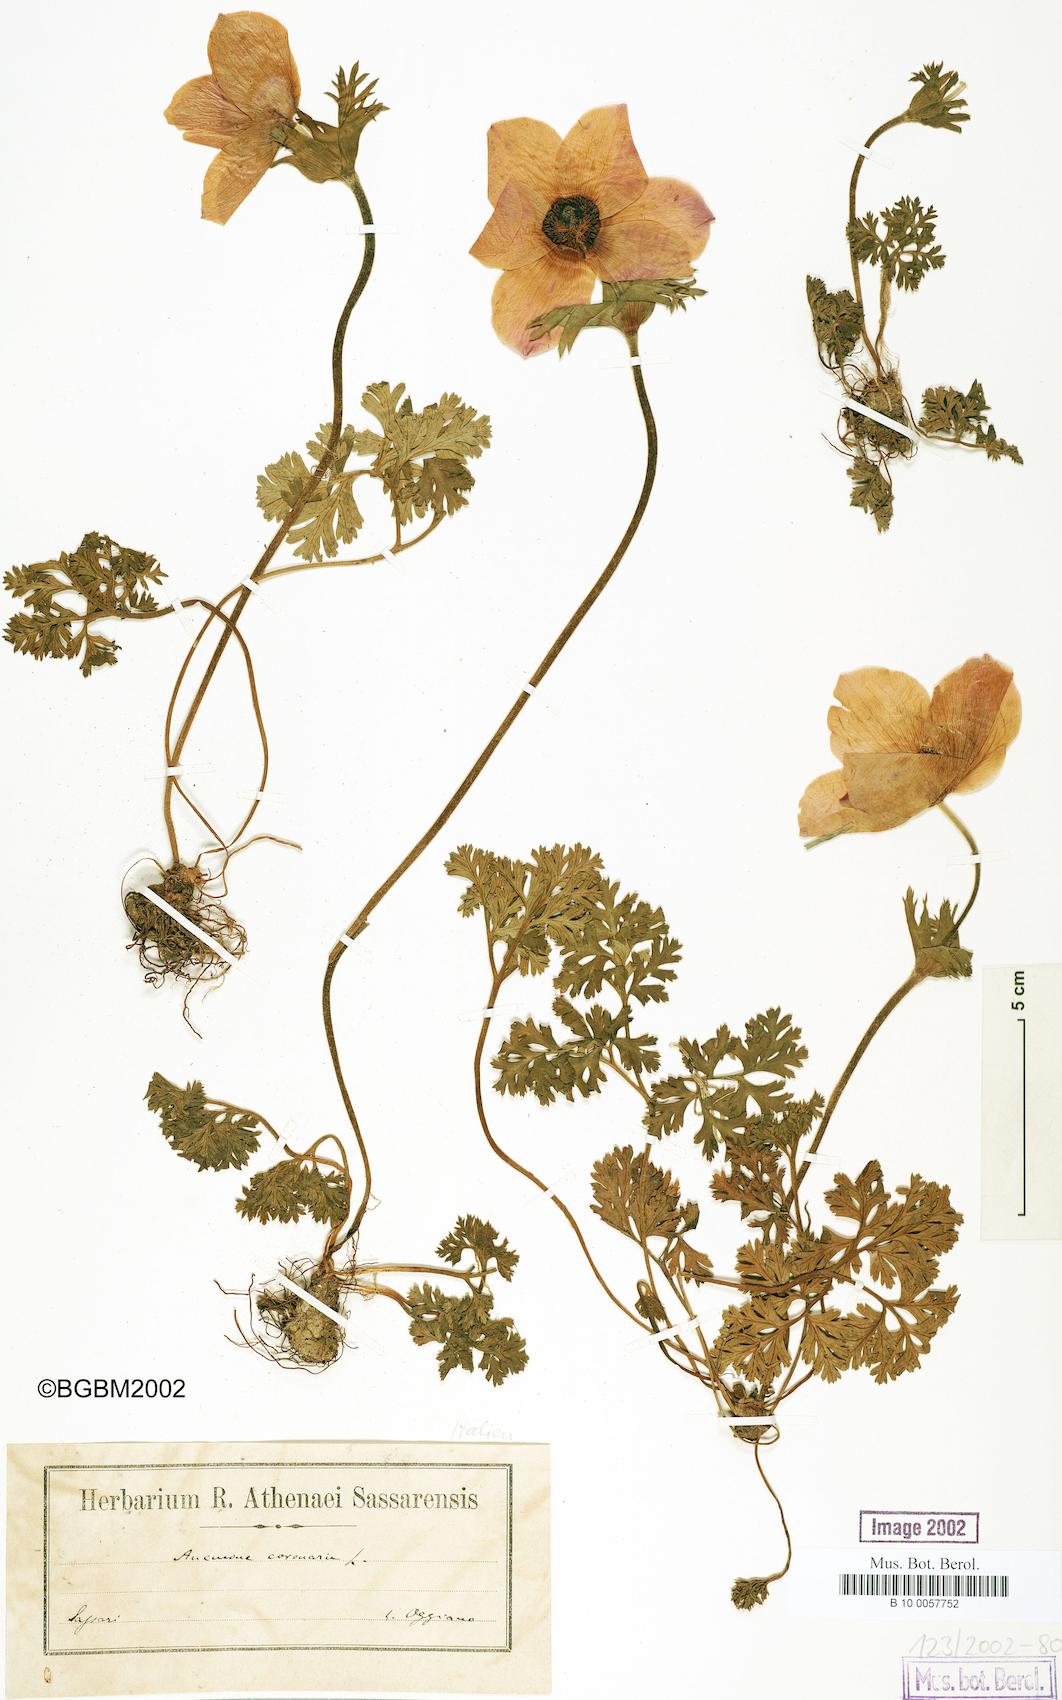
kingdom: Plantae
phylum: Tracheophyta
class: Magnoliopsida
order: Ranunculales
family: Ranunculaceae
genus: Anemone
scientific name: Anemone coronaria
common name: Poppy anemone
